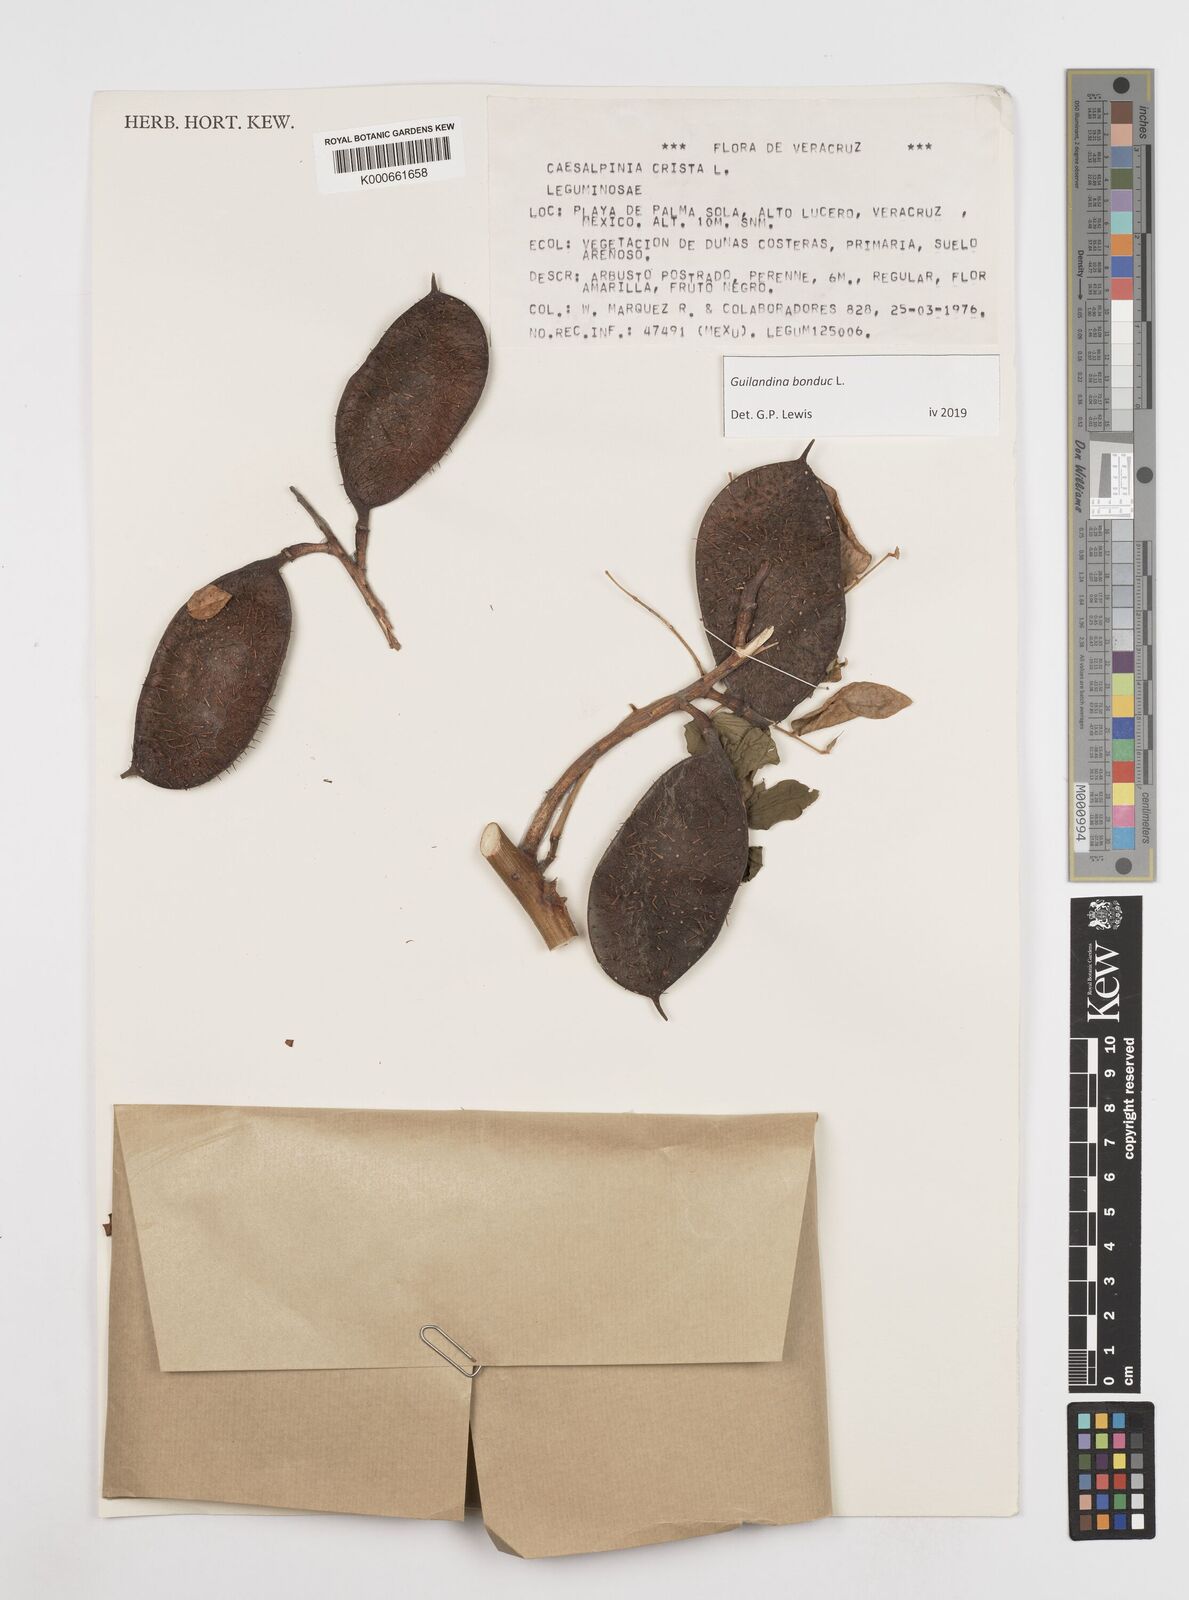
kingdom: Plantae
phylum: Tracheophyta
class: Magnoliopsida
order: Fabales
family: Fabaceae
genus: Guilandina
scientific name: Guilandina bonduc
